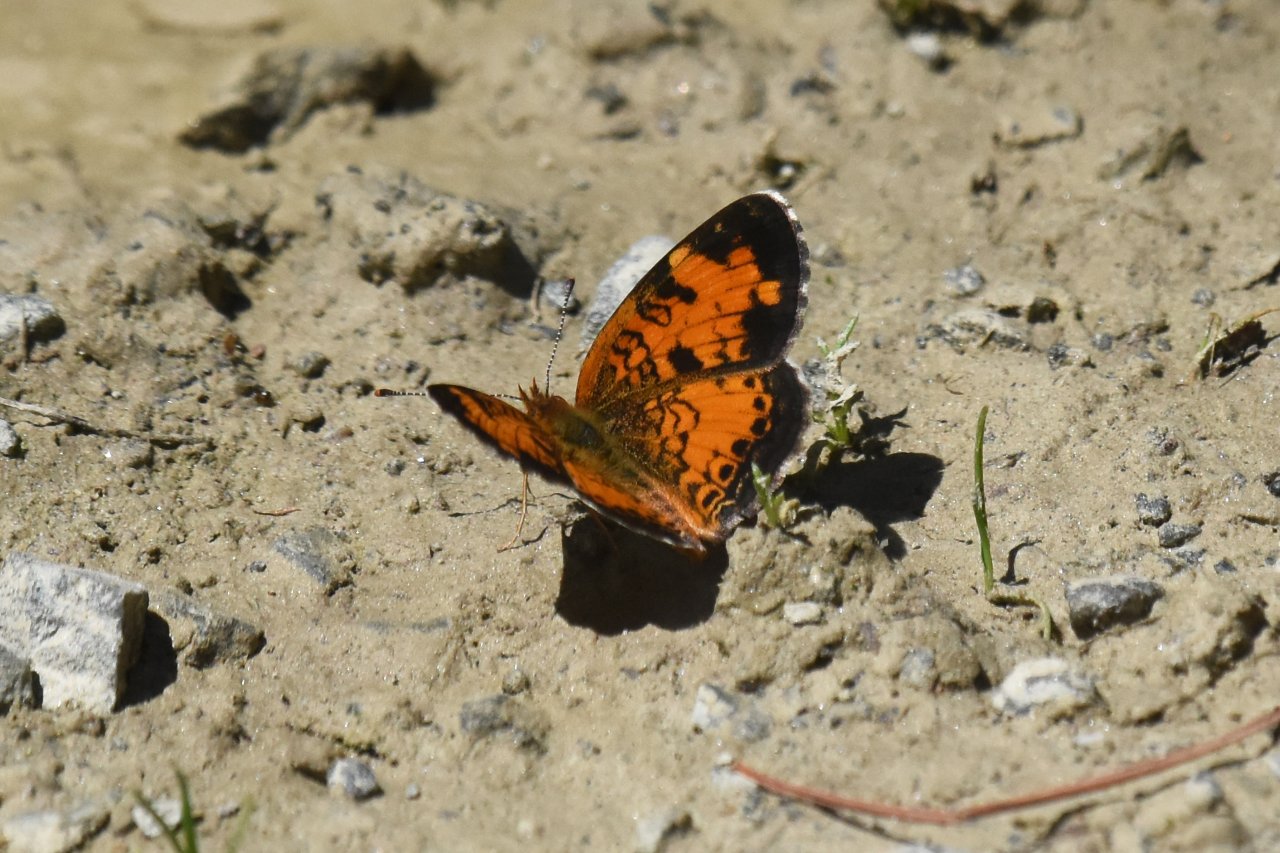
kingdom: Animalia
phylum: Arthropoda
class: Insecta
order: Lepidoptera
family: Nymphalidae
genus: Phyciodes
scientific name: Phyciodes tharos
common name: Northern Crescent
